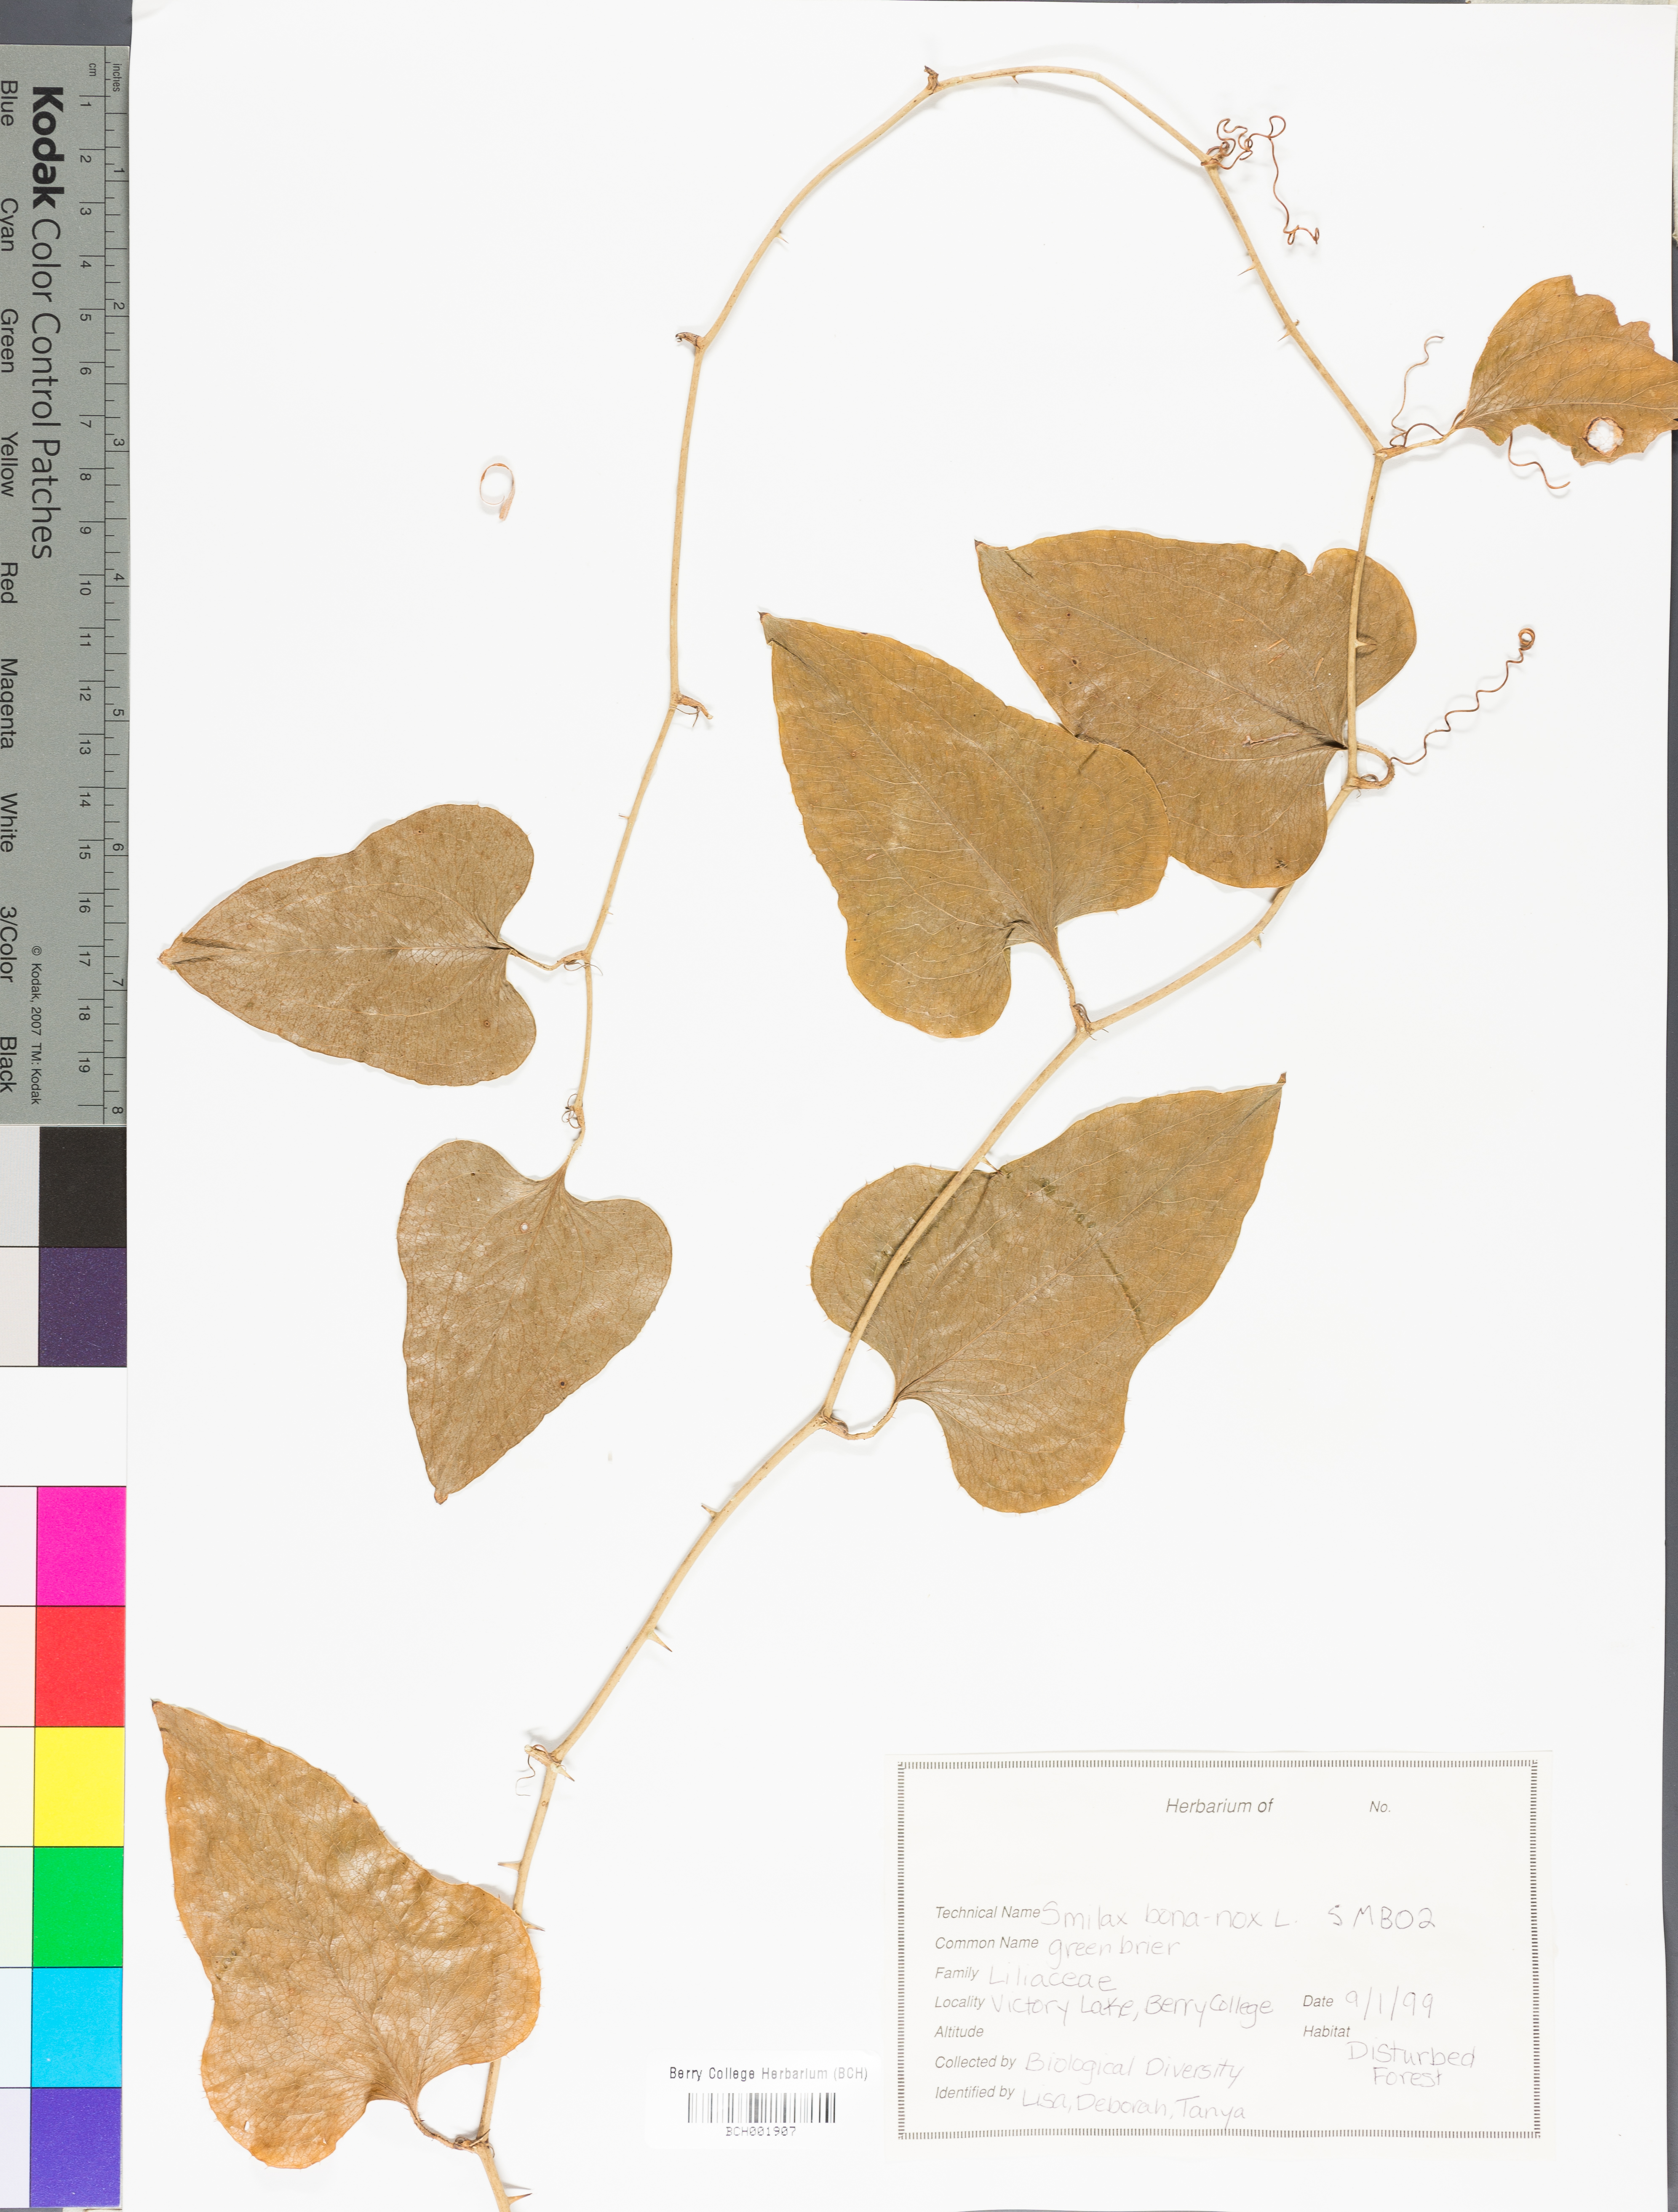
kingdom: Plantae
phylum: Tracheophyta
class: Liliopsida
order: Liliales
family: Smilacaceae
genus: Smilax
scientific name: Smilax bona-nox
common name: Catbrier
